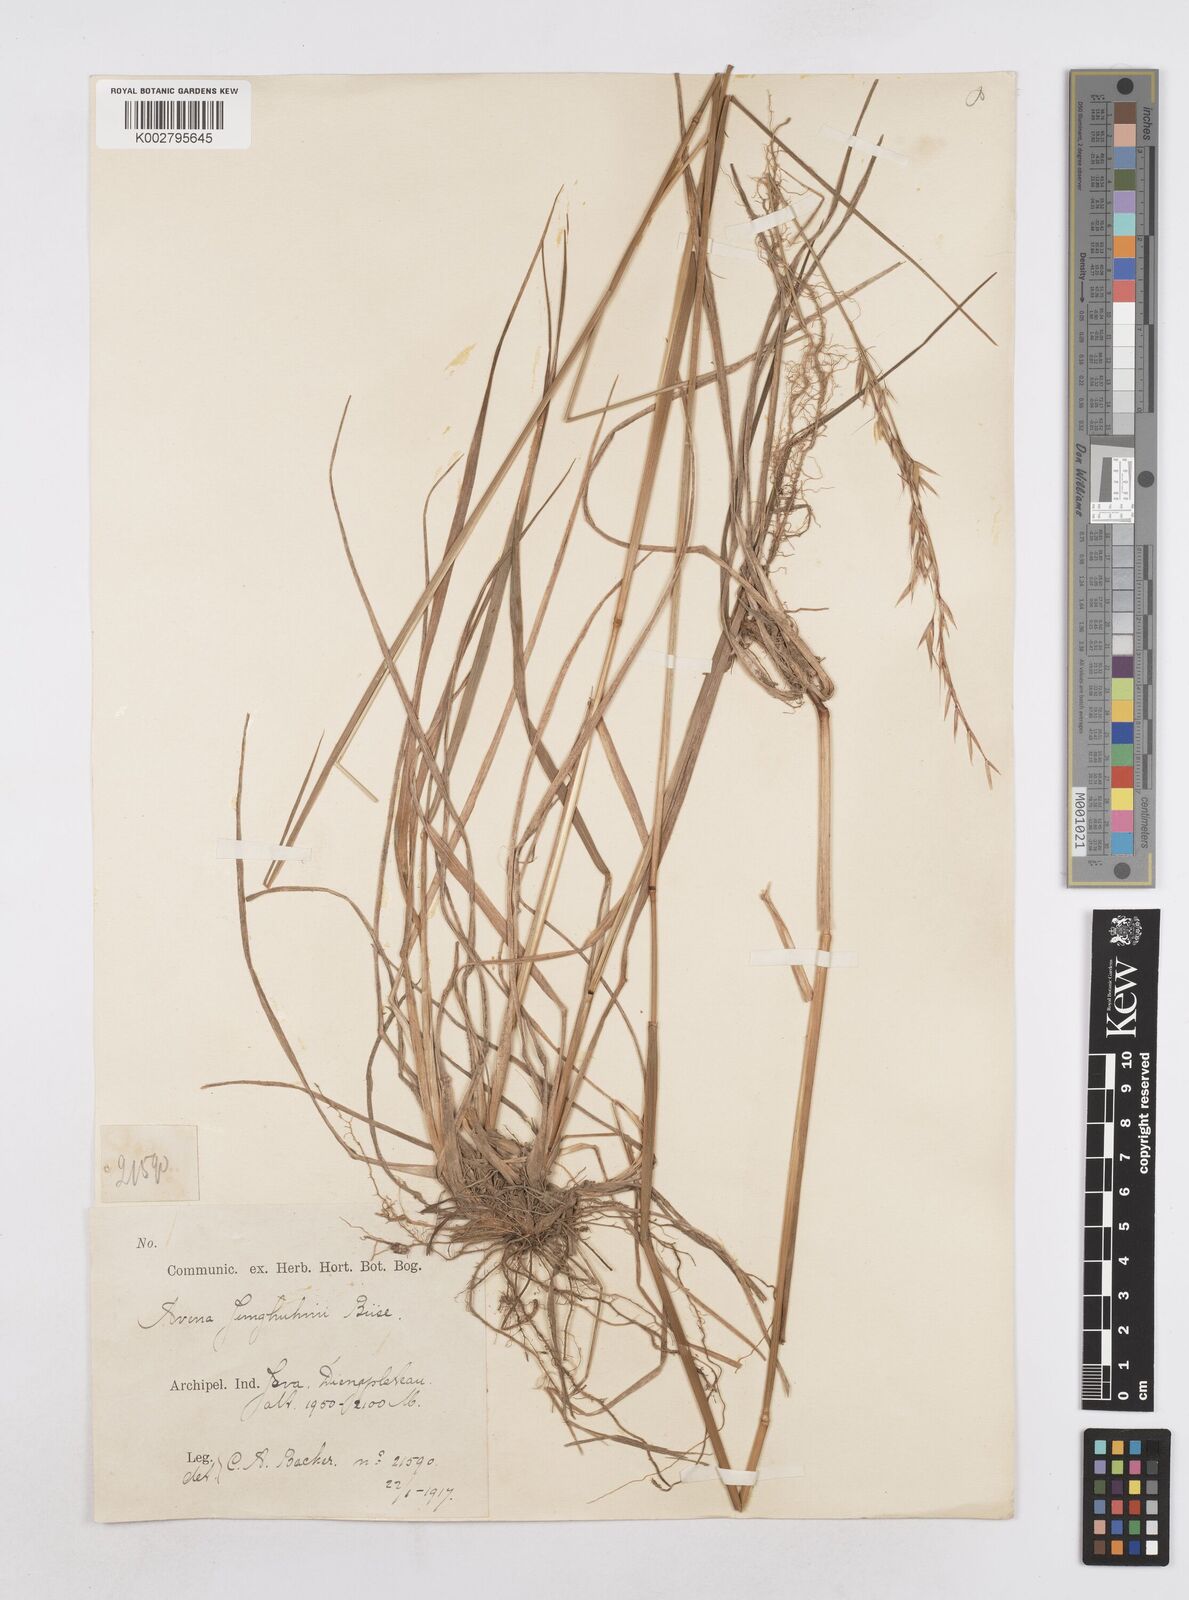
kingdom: Plantae
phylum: Tracheophyta
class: Liliopsida
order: Poales
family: Poaceae
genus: Trisetopsis
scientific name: Trisetopsis junghuhnii
